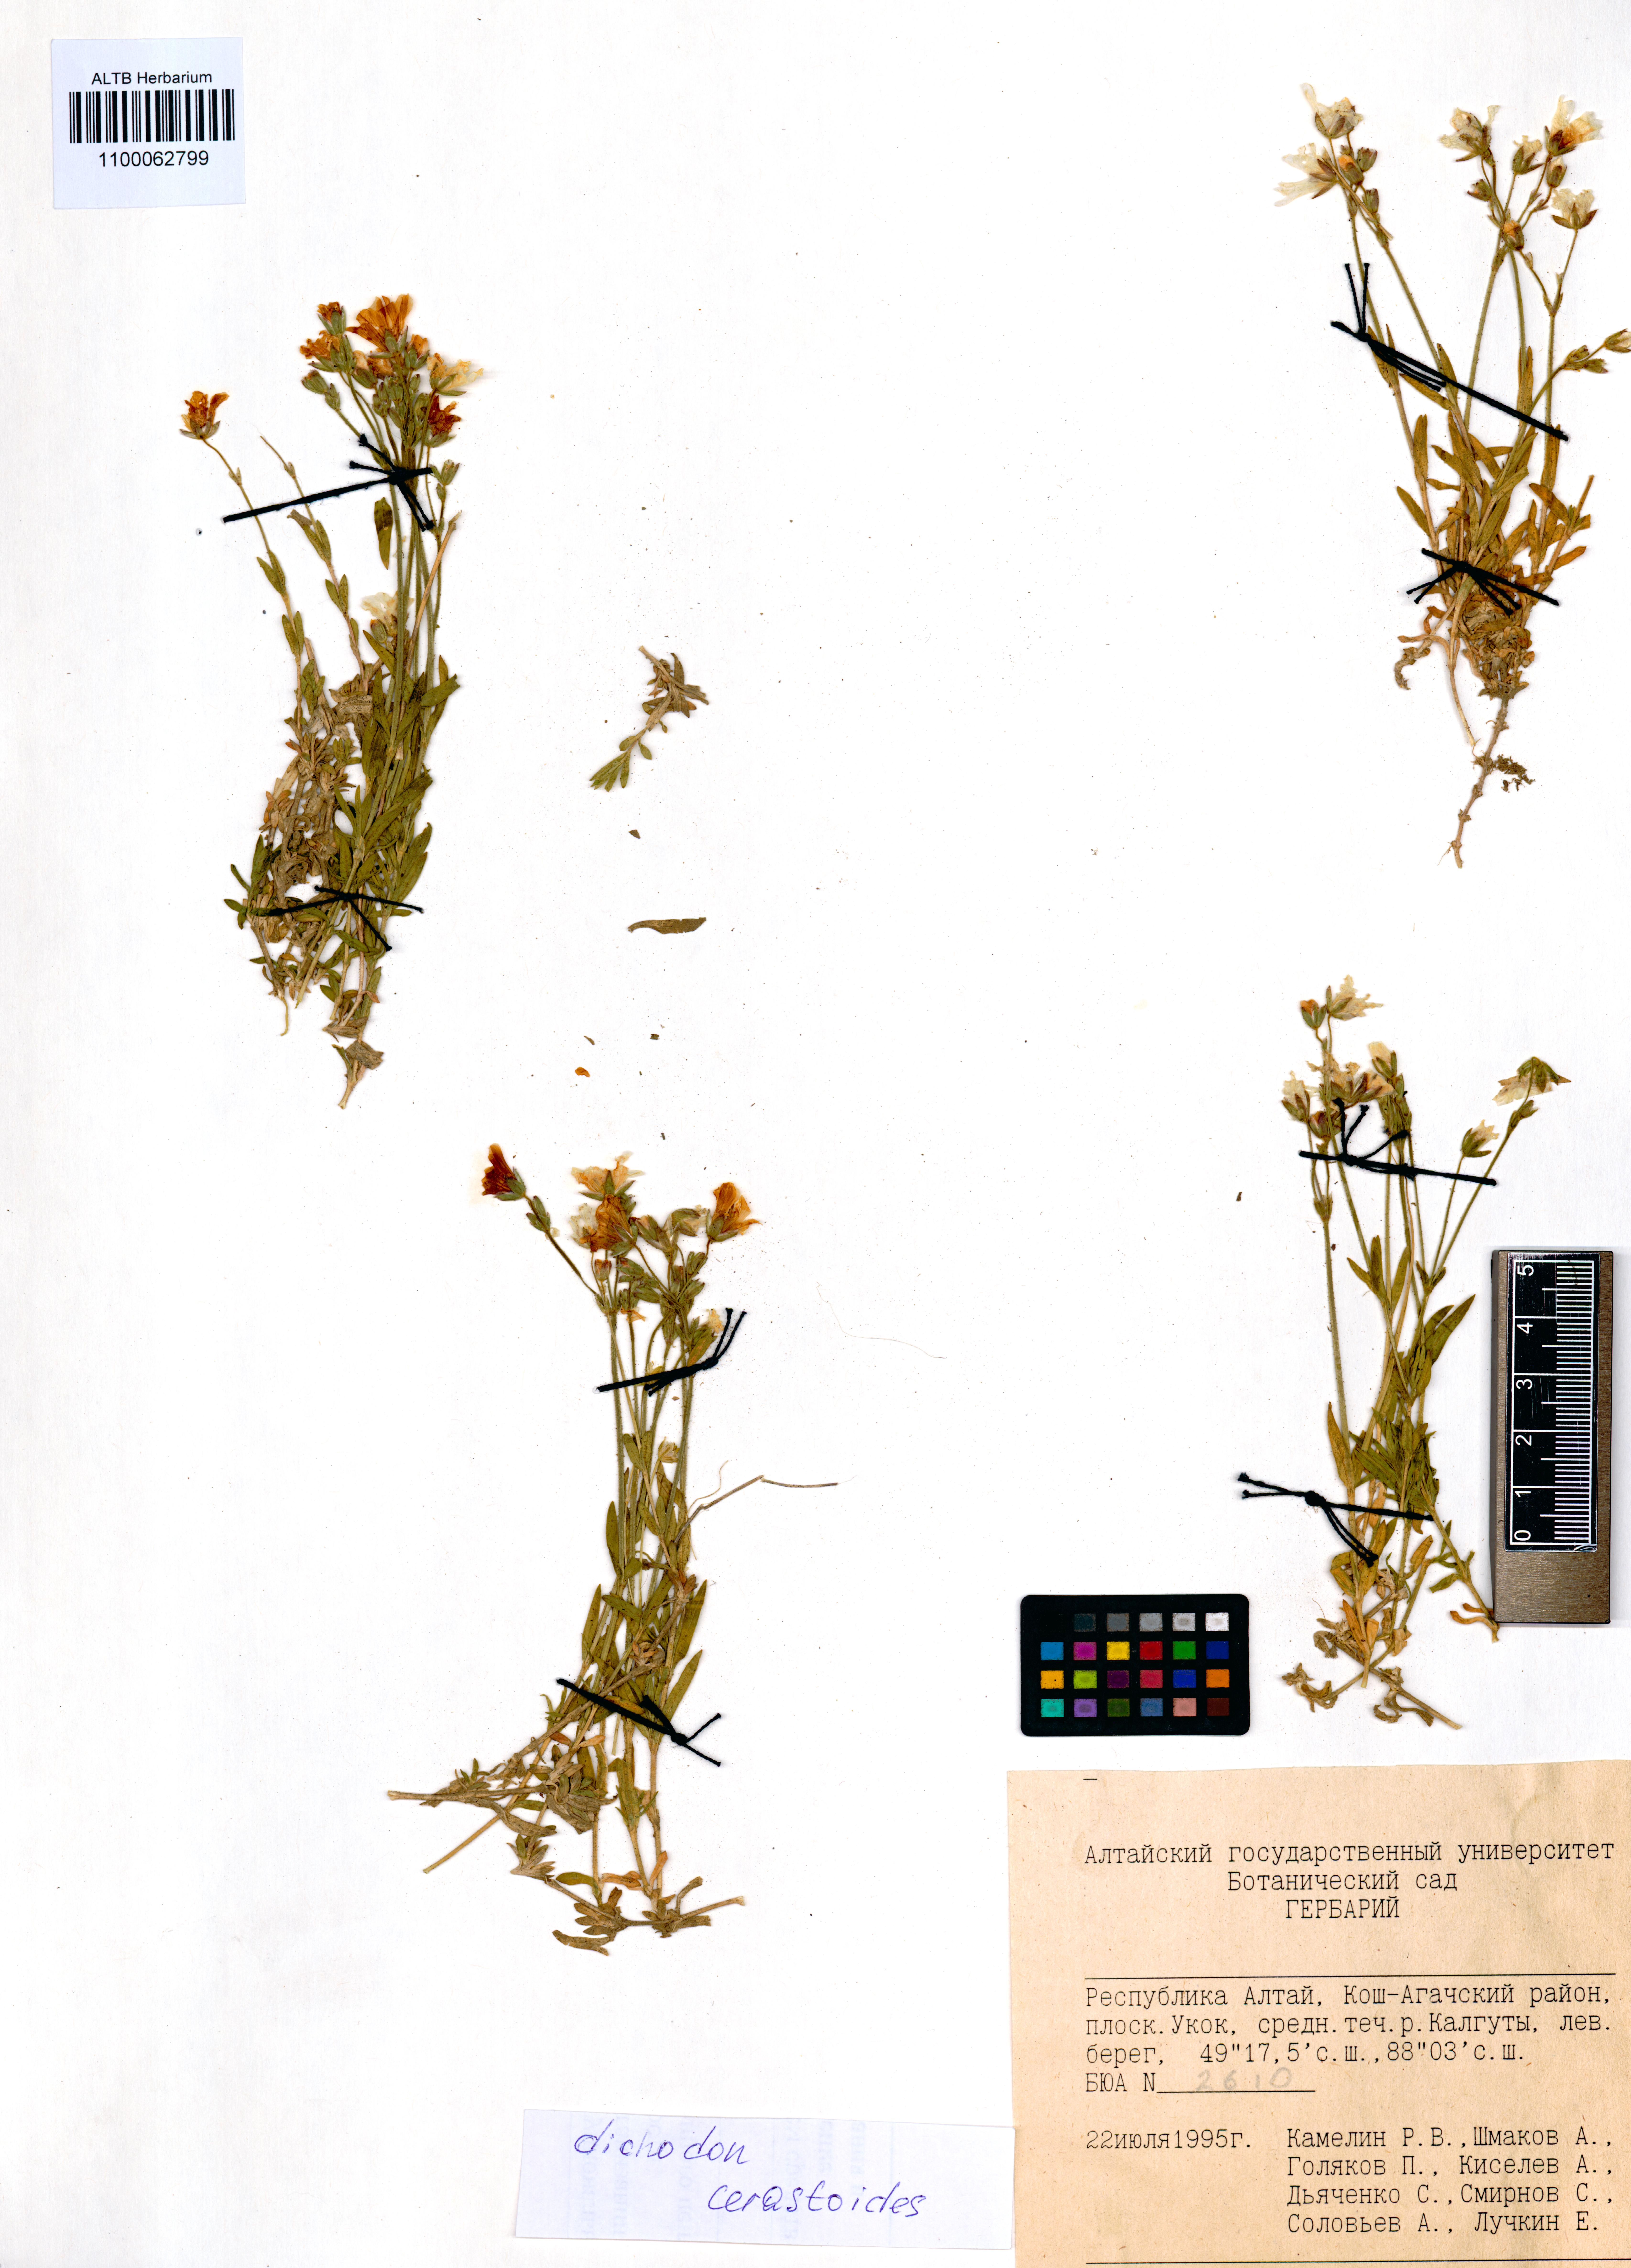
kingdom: Plantae
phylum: Tracheophyta
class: Magnoliopsida
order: Caryophyllales
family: Caryophyllaceae
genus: Dichodon
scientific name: Dichodon cerastoides
